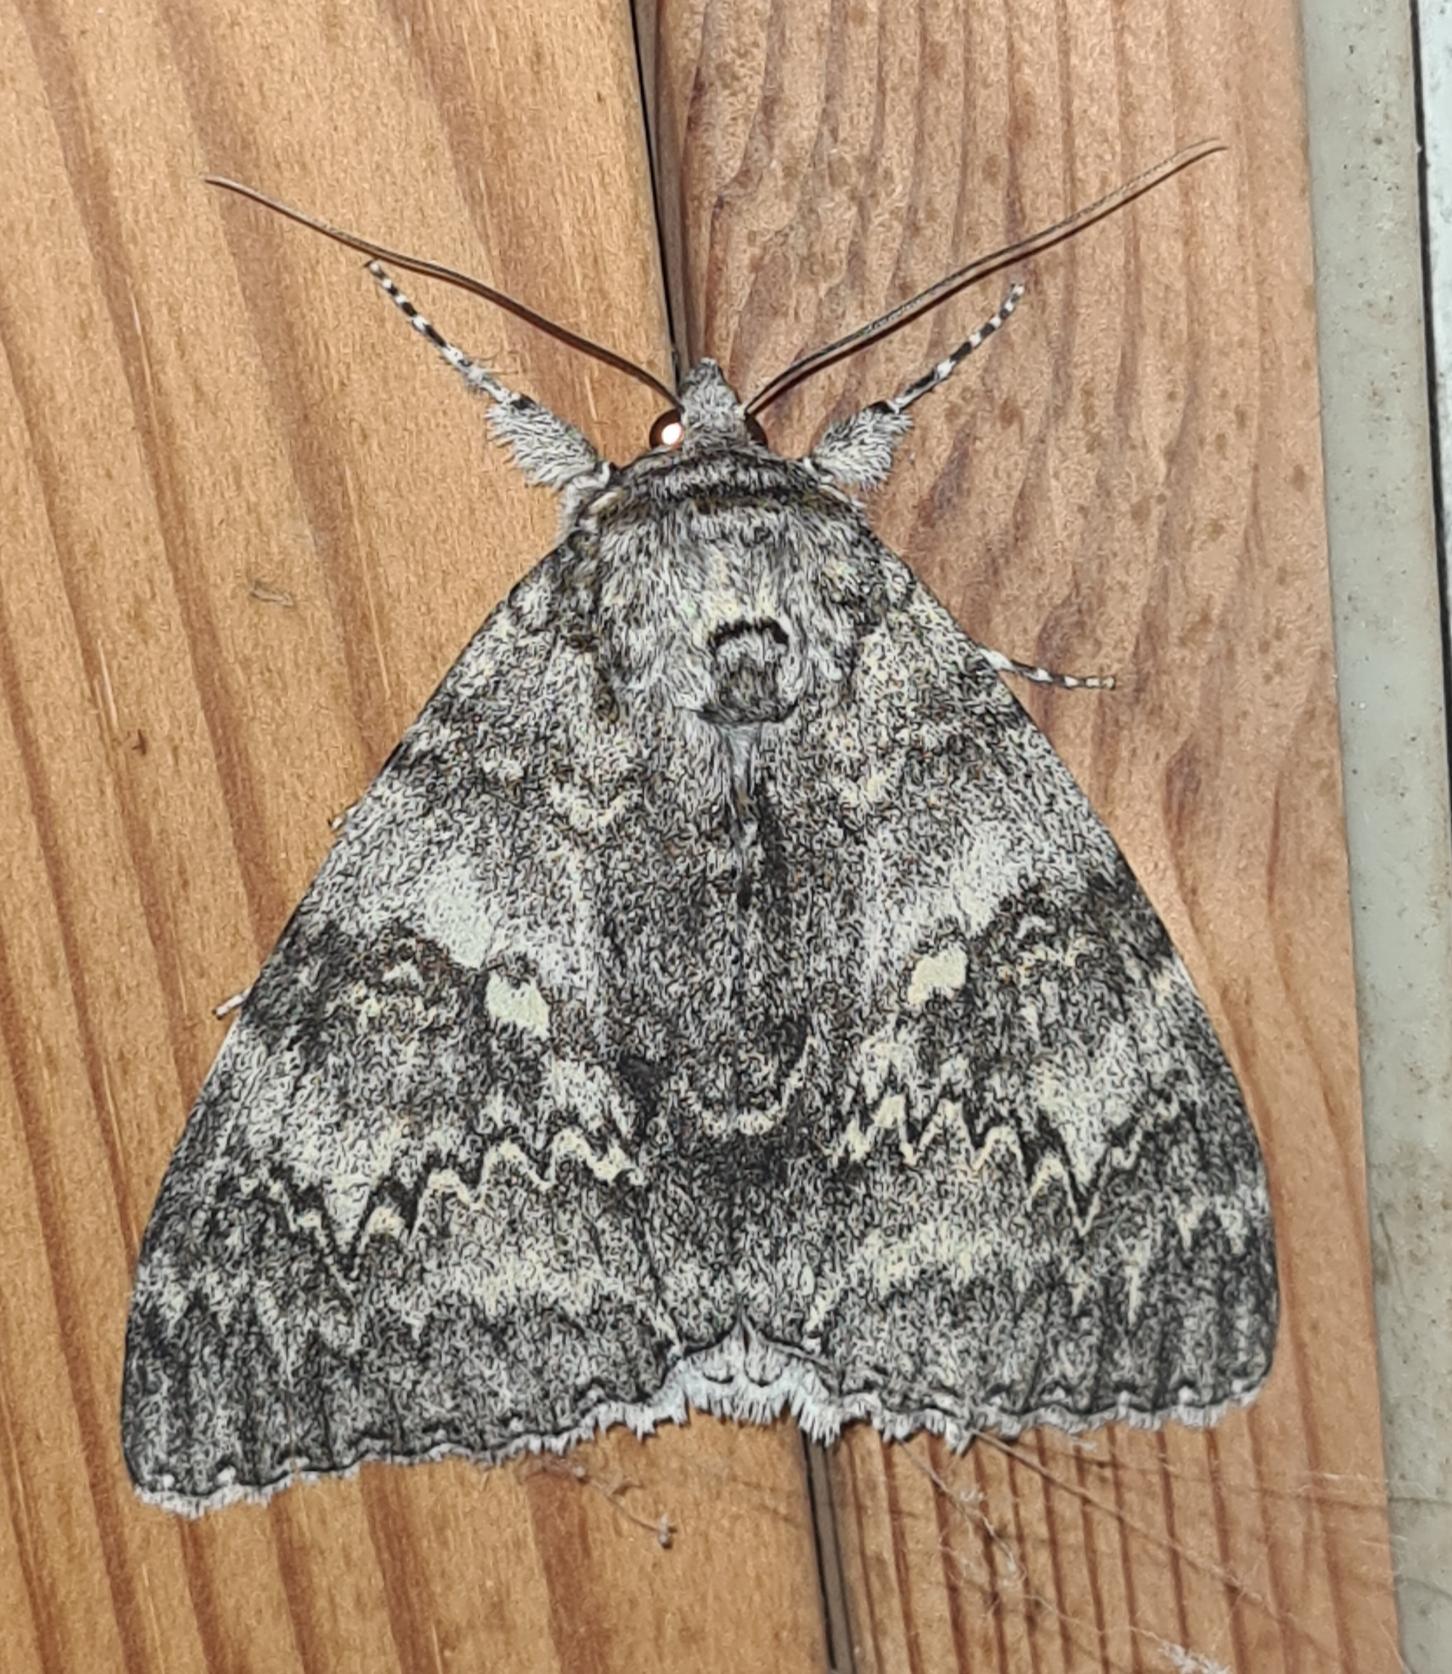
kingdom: Animalia
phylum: Arthropoda
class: Insecta
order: Lepidoptera
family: Erebidae
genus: Catocala
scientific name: Catocala fraxini
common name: Blåt ordensbånd
